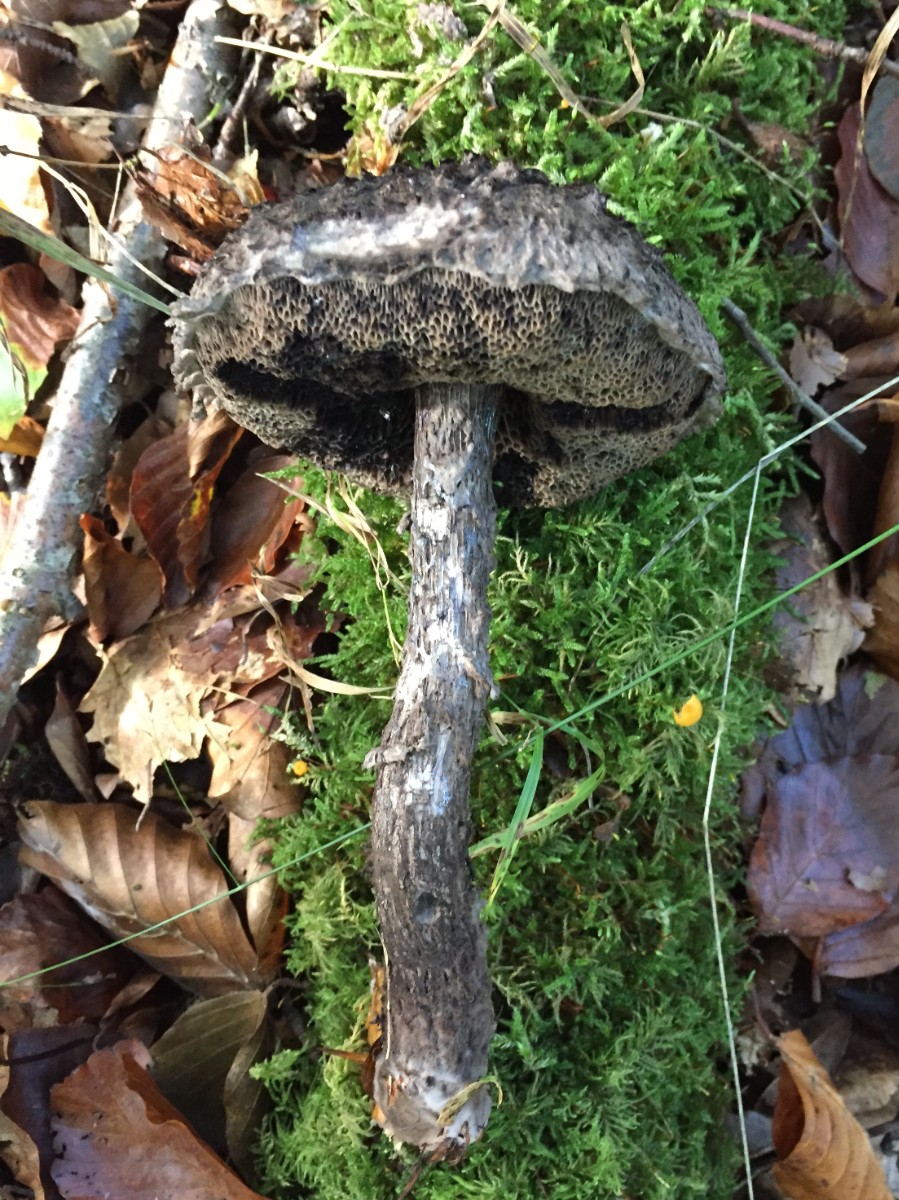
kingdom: Fungi
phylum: Basidiomycota
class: Agaricomycetes
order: Boletales
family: Boletaceae
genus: Strobilomyces
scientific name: Strobilomyces strobilaceus
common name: koglerørhat
